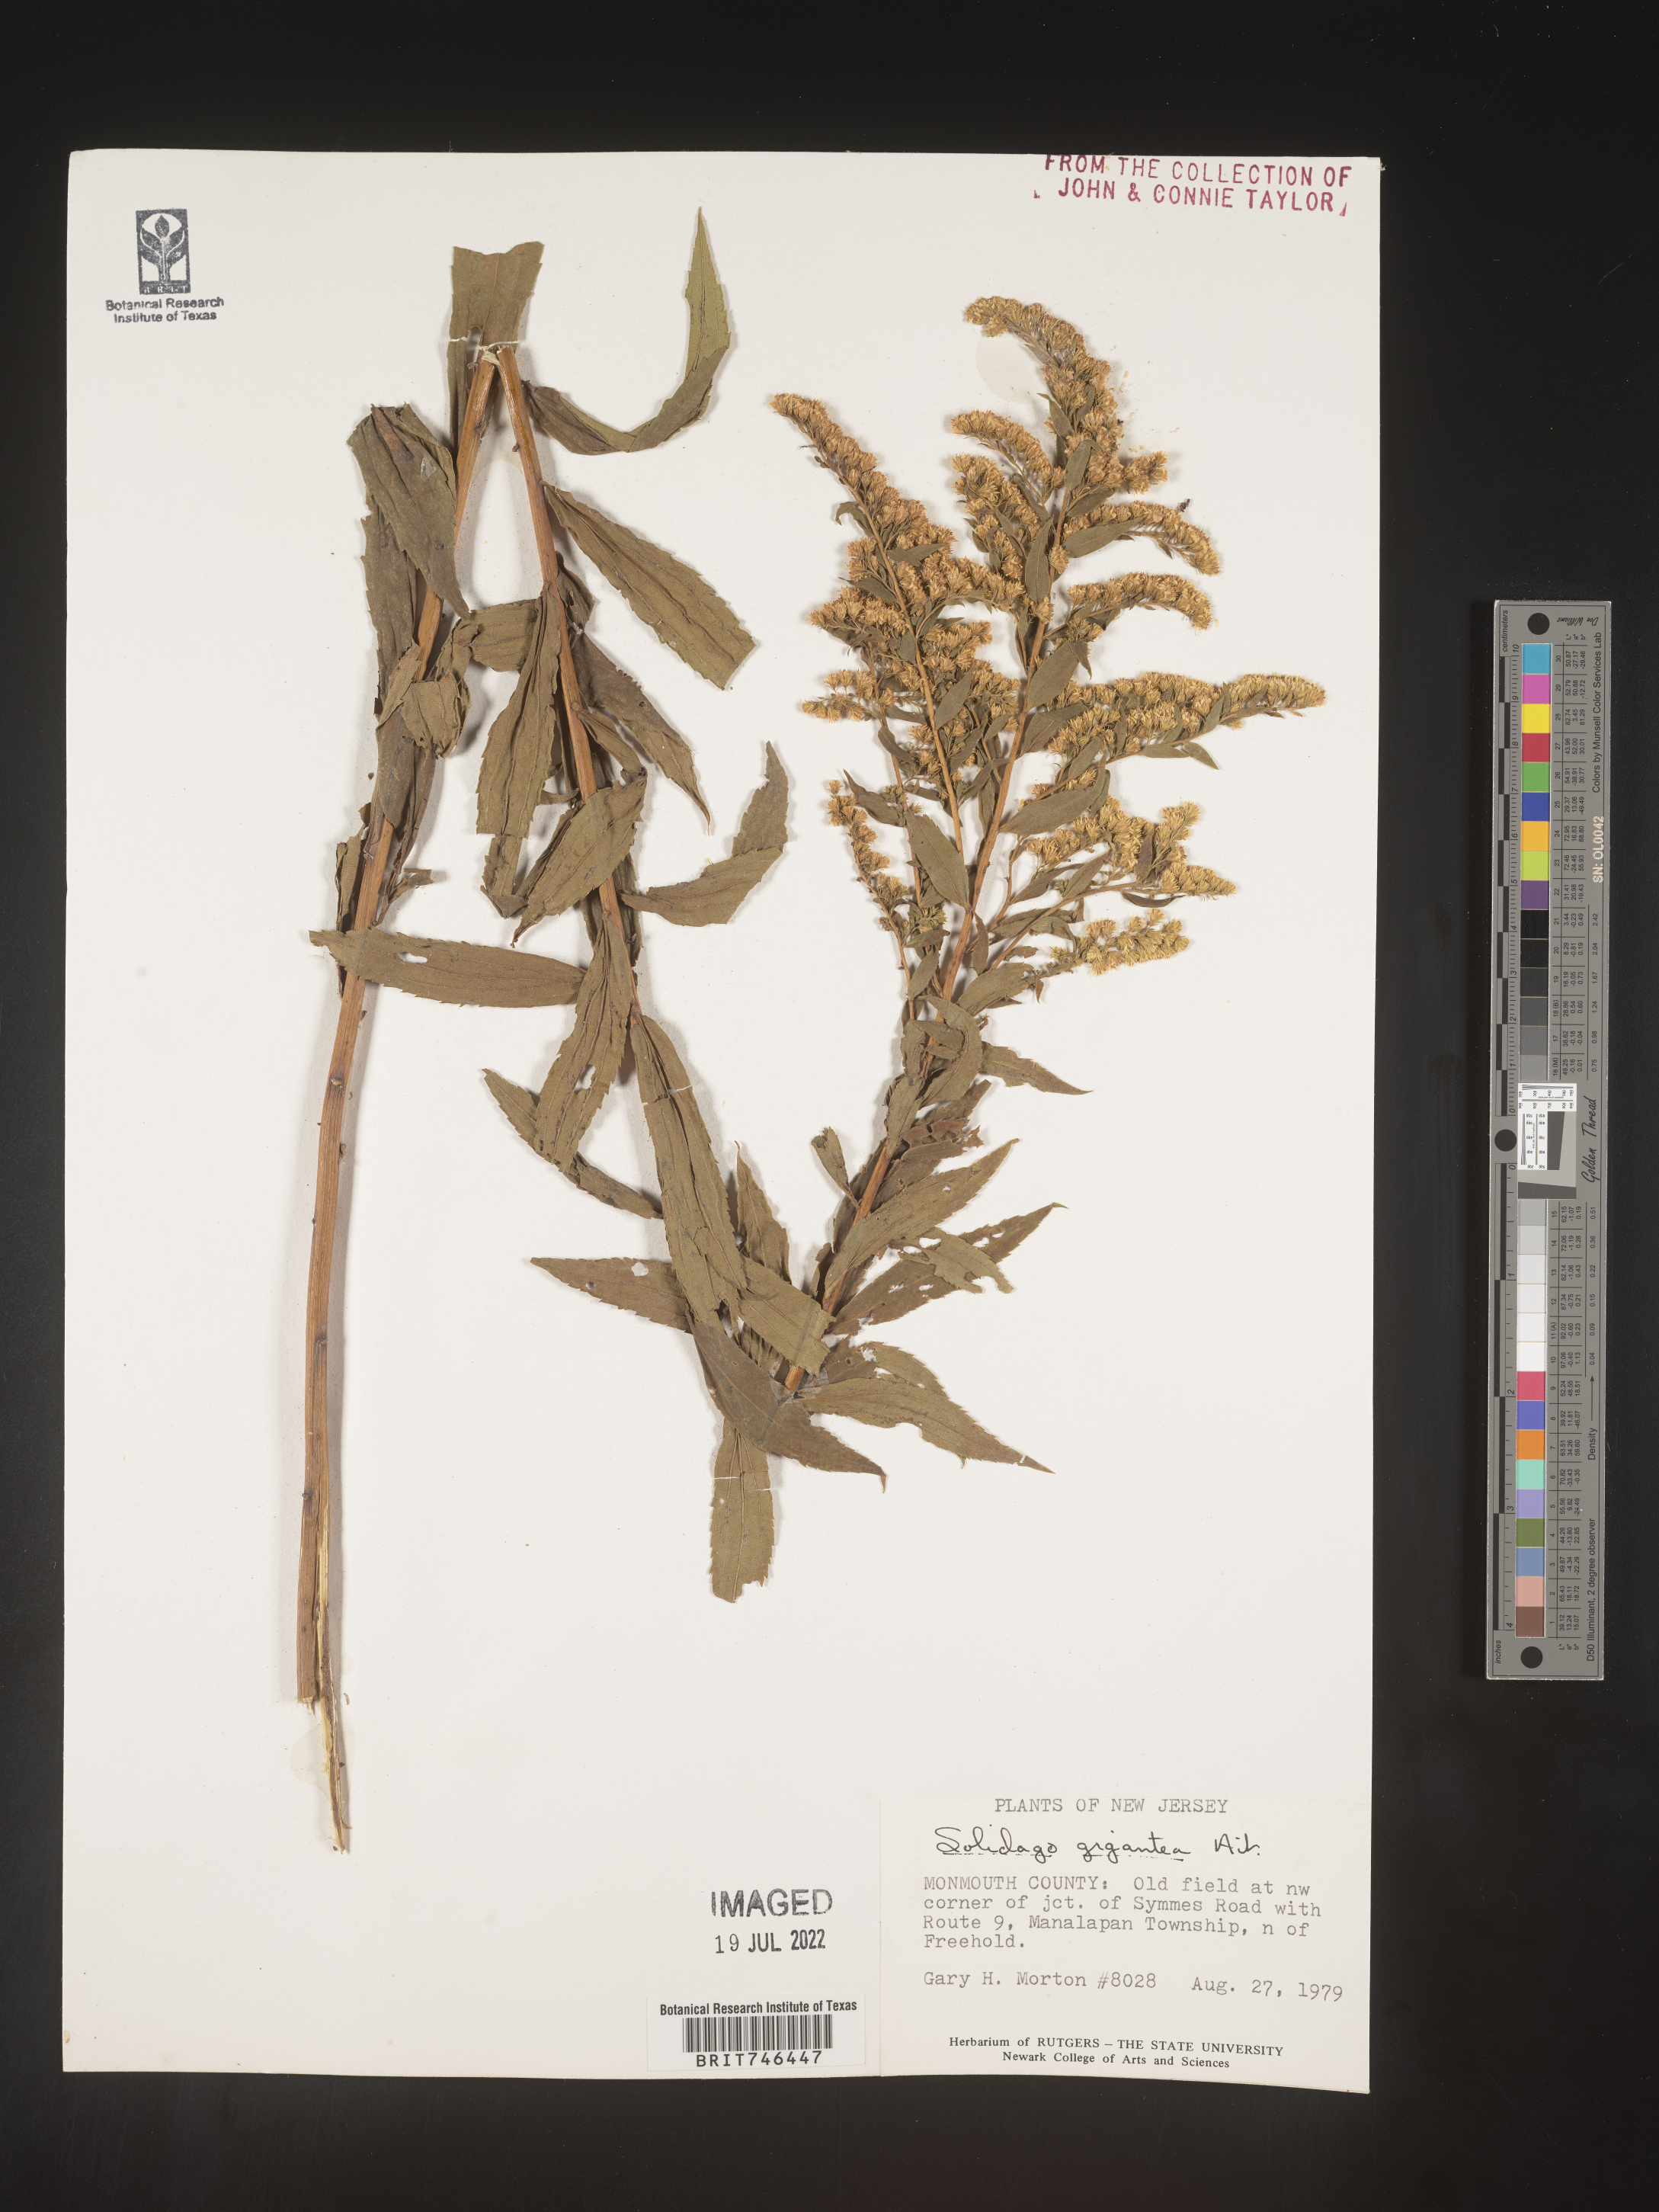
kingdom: Plantae
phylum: Tracheophyta
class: Magnoliopsida
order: Asterales
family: Asteraceae
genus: Solidago
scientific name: Solidago gigantea
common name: Giant goldenrod
